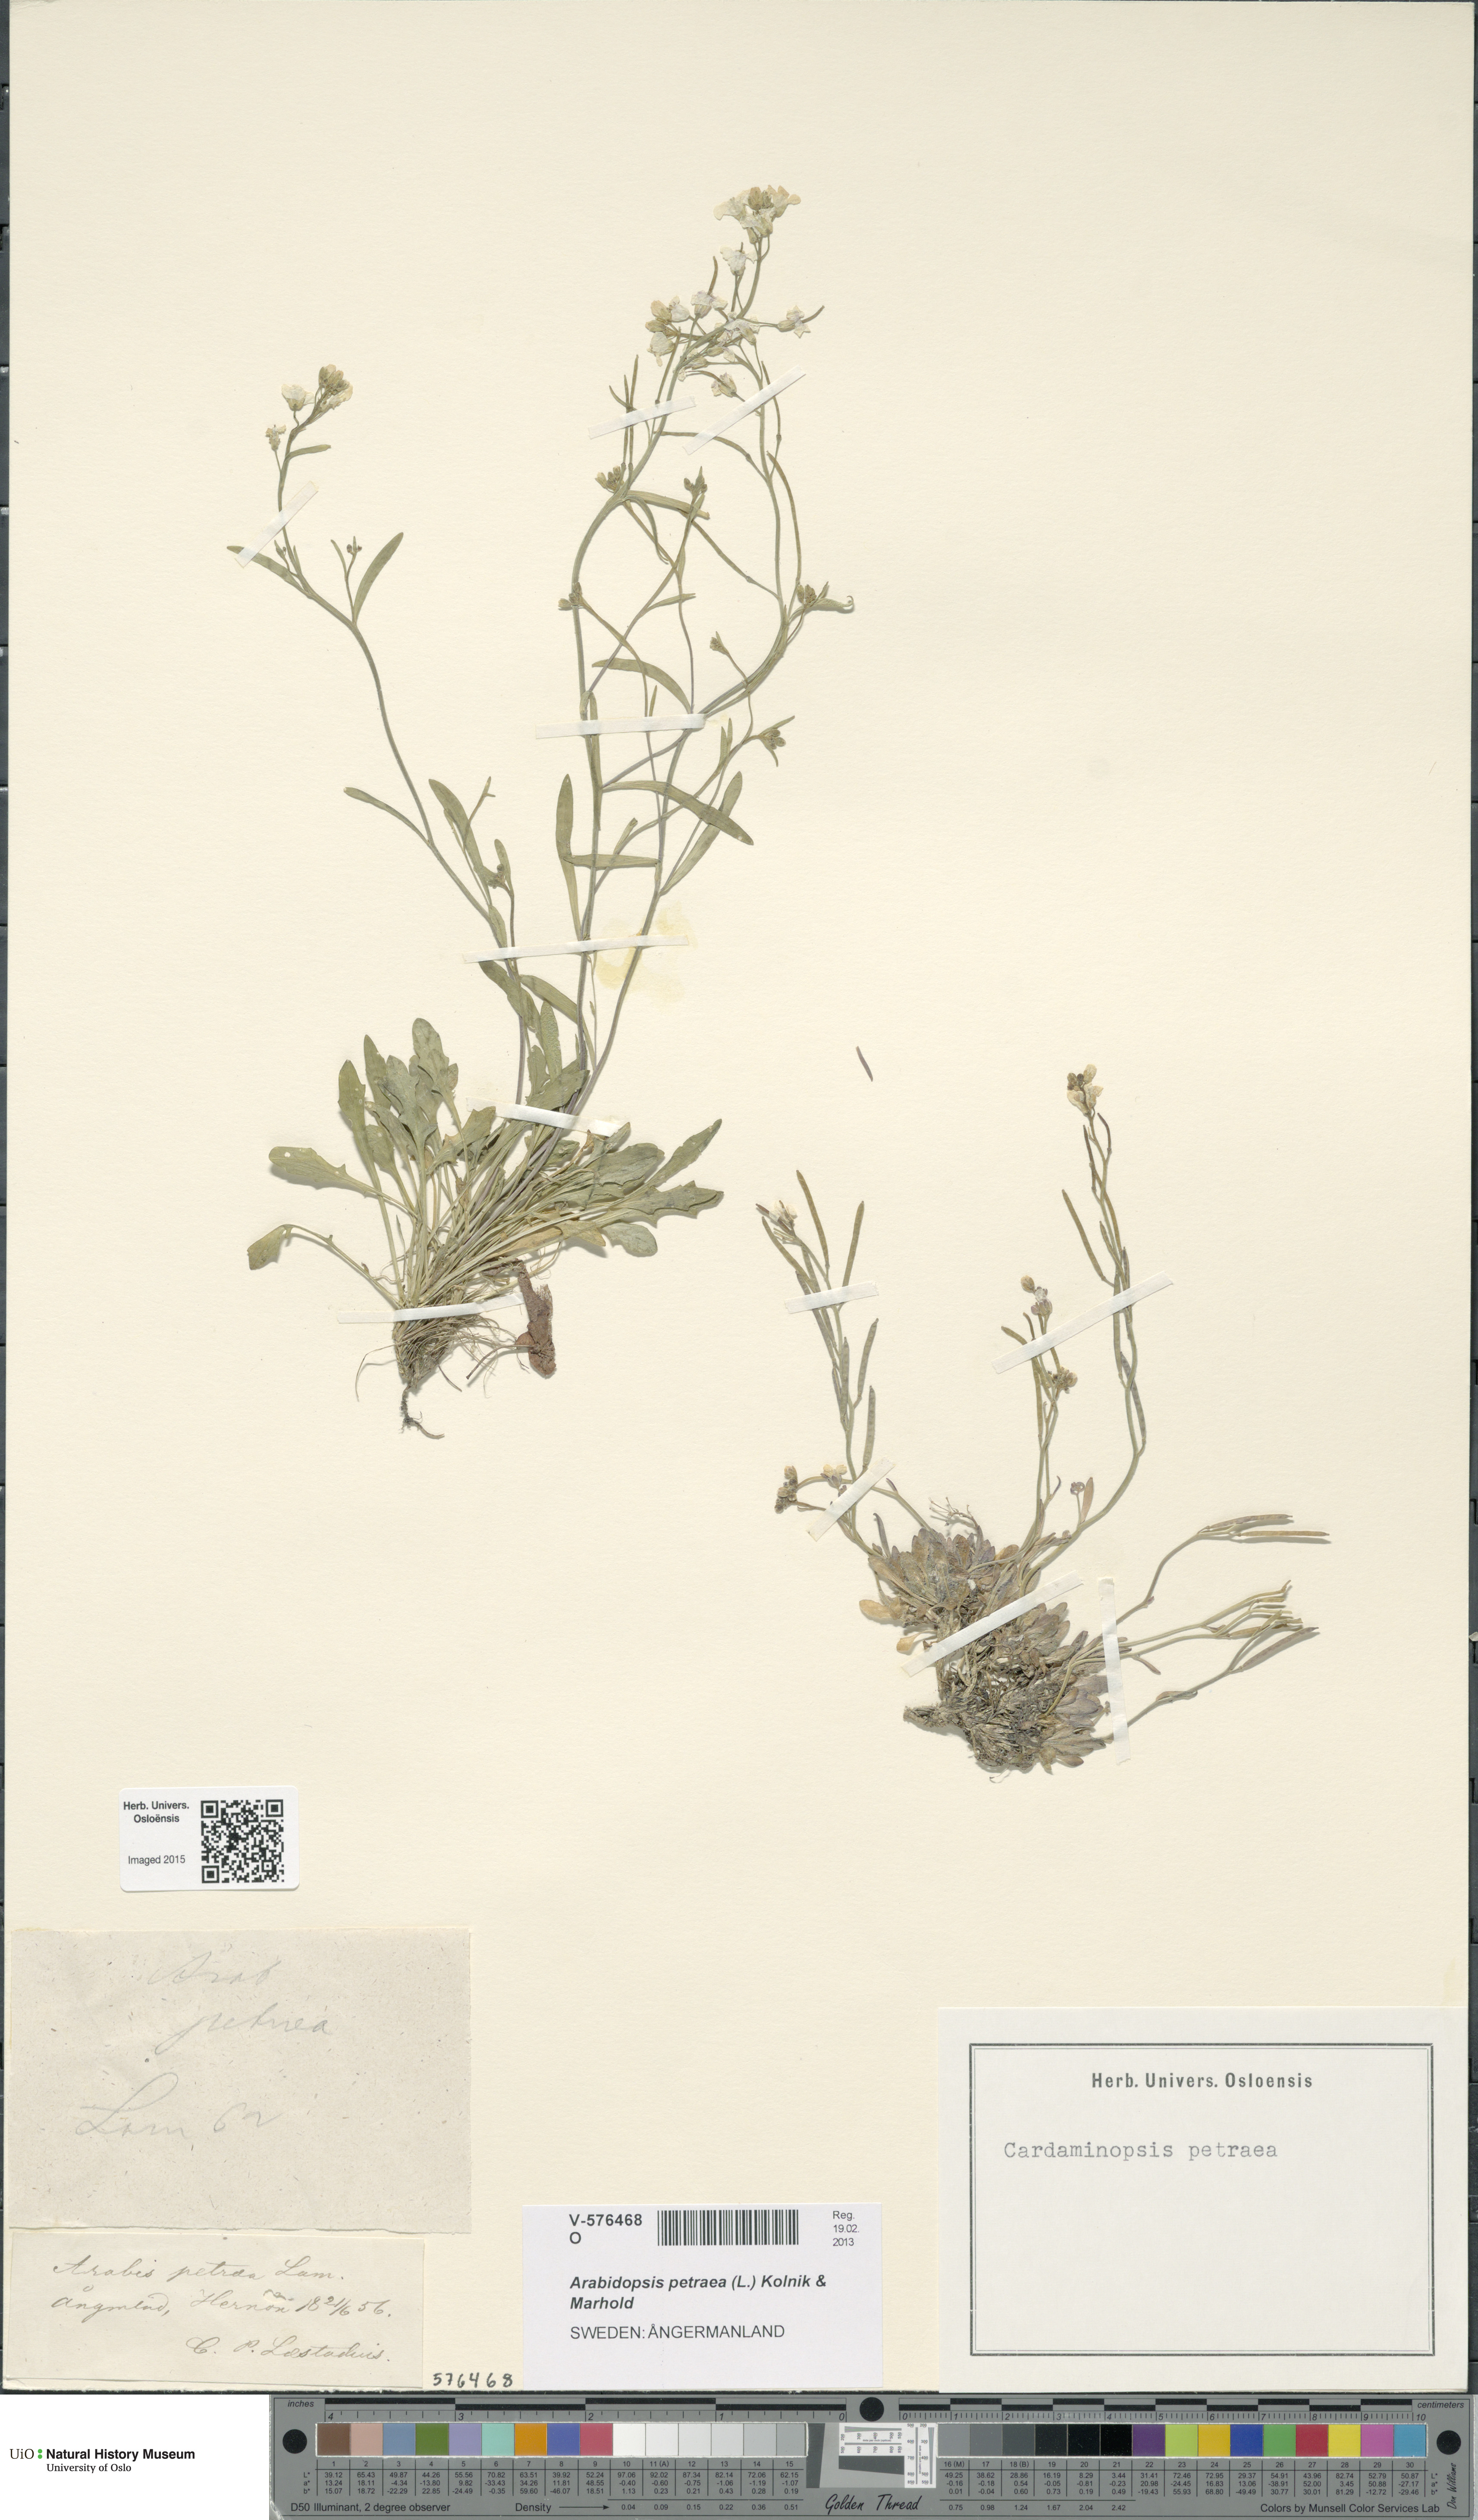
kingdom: Plantae
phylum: Tracheophyta
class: Magnoliopsida
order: Brassicales
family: Brassicaceae
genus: Arabidopsis
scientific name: Arabidopsis petraea
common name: Northern rock-cress
